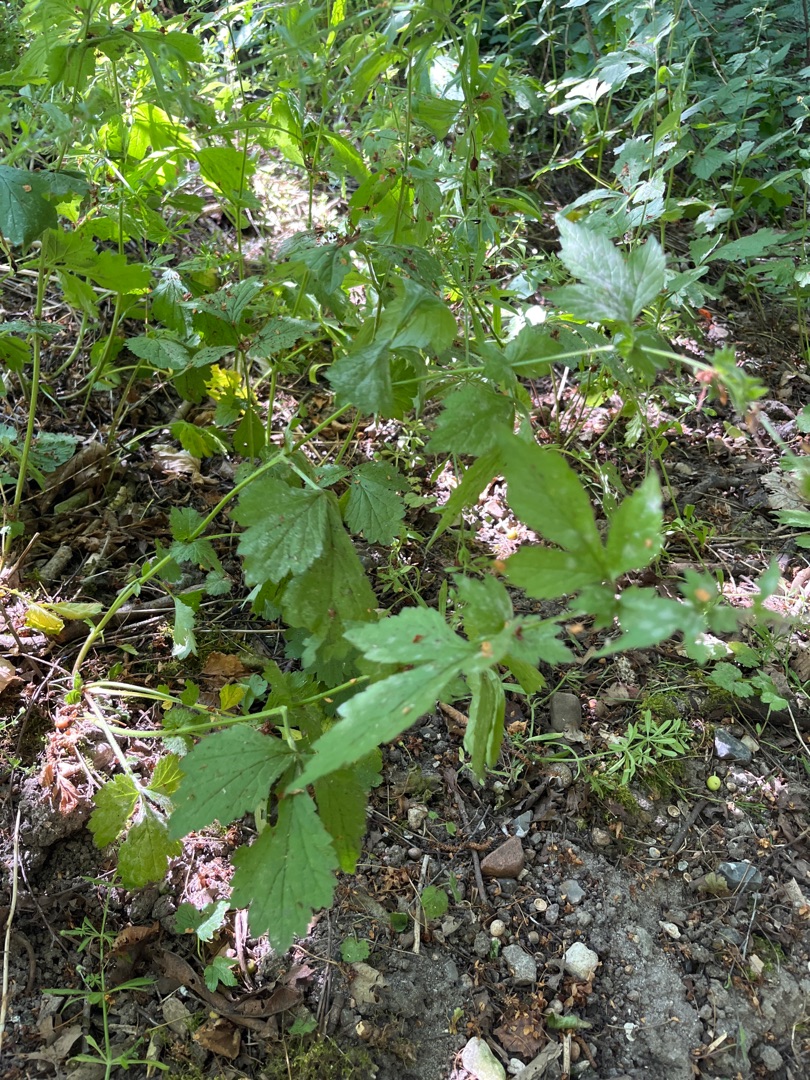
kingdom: Plantae
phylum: Tracheophyta
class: Magnoliopsida
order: Rosales
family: Rosaceae
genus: Geum
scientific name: Geum urbanum
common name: Feber-nellikerod
